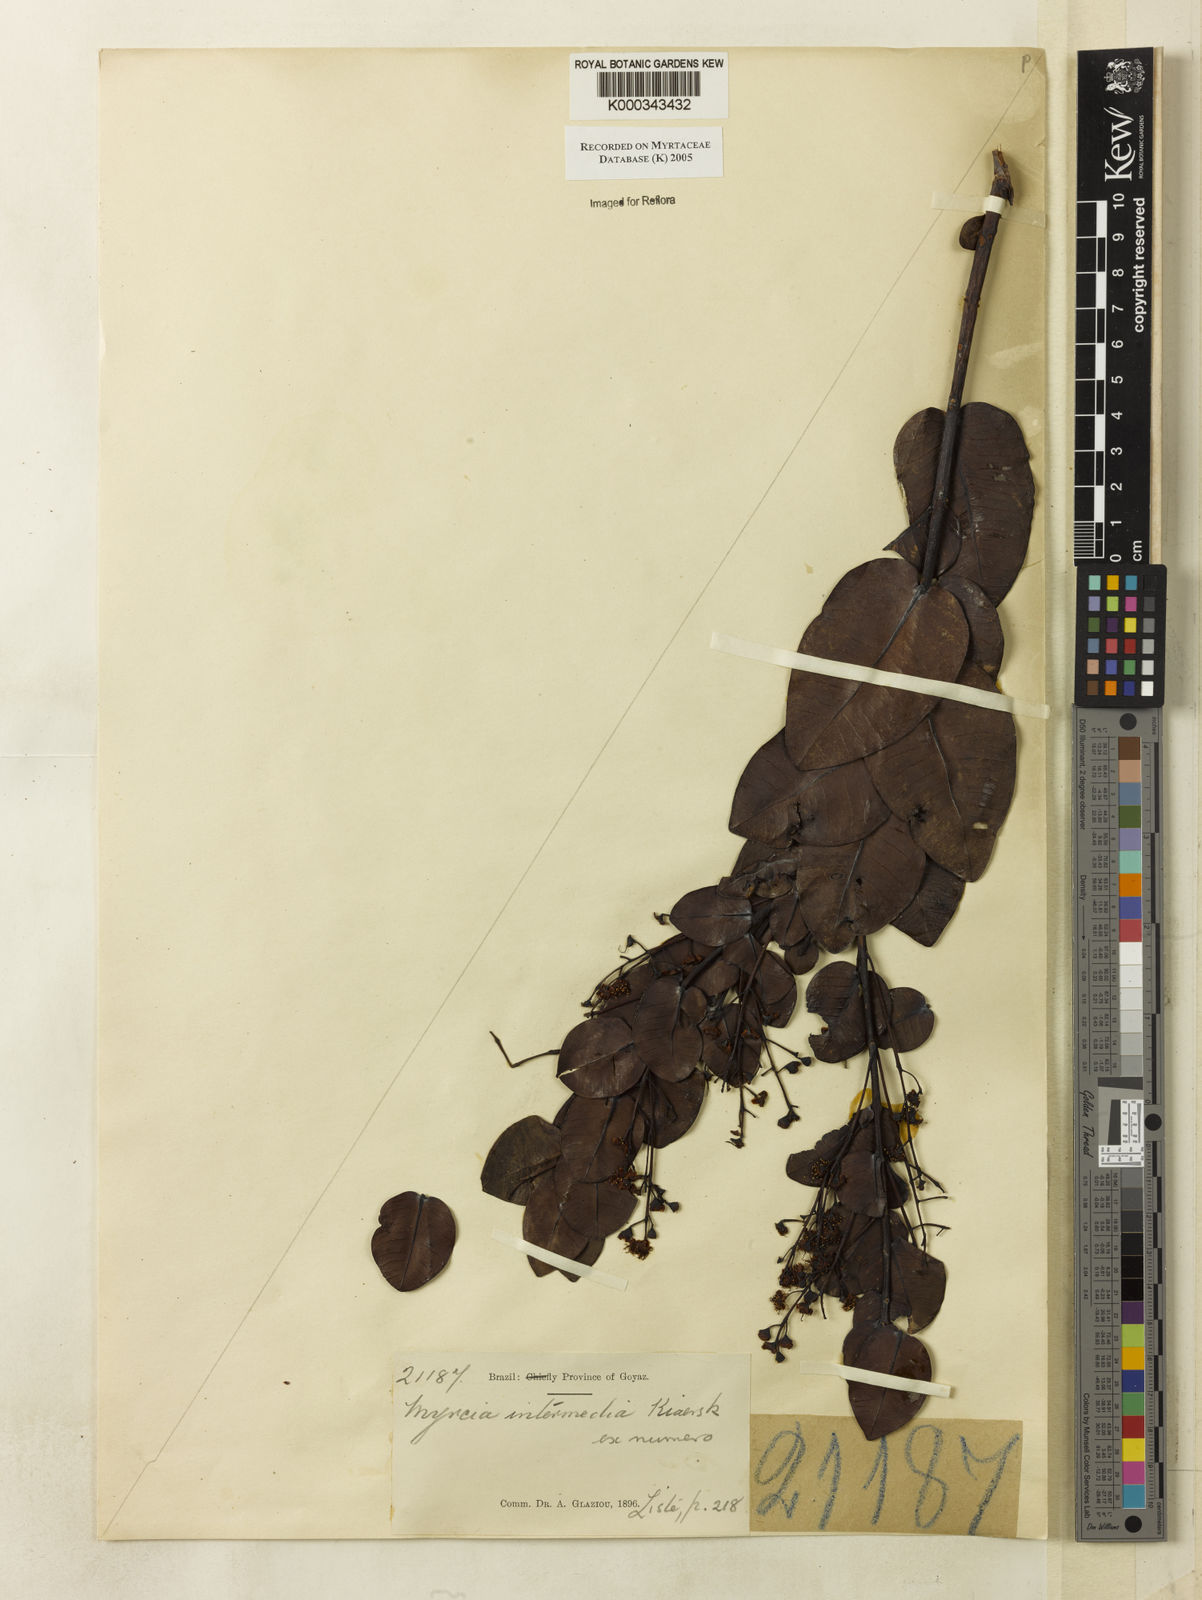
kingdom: Plantae
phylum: Tracheophyta
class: Magnoliopsida
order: Myrtales
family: Myrtaceae
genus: Myrcia
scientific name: Myrcia guianensis
